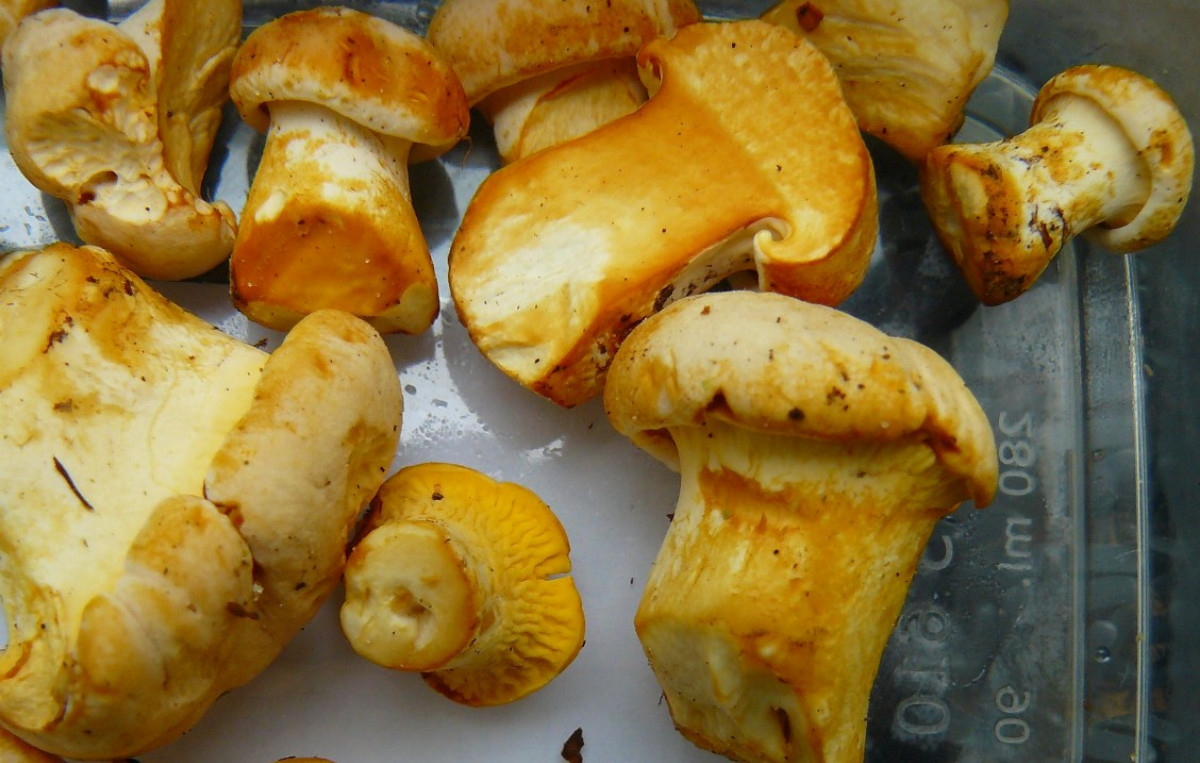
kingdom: Fungi
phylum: Basidiomycota
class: Agaricomycetes
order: Cantharellales
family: Hydnaceae
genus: Cantharellus
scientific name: Cantharellus pallens
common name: bleg kantarel
